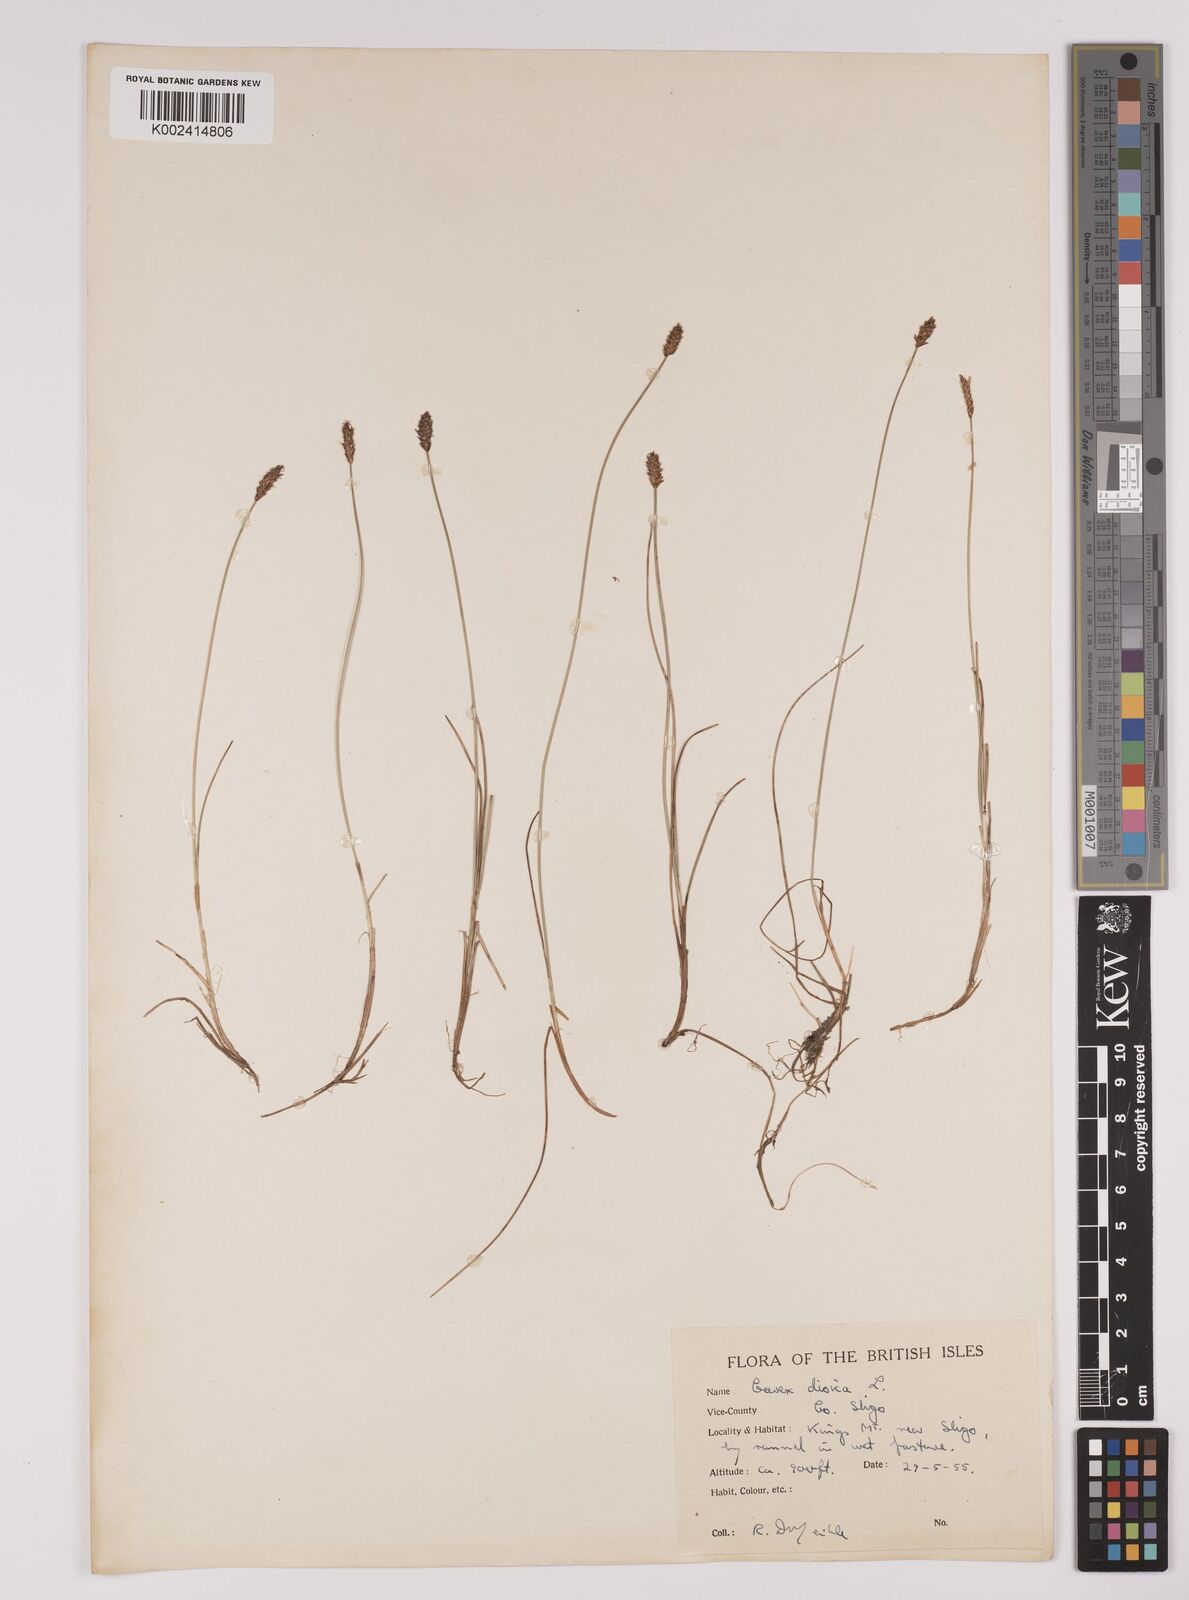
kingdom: Plantae
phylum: Tracheophyta
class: Liliopsida
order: Poales
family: Cyperaceae
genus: Carex
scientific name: Carex dioica
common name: Dioecious sedge
